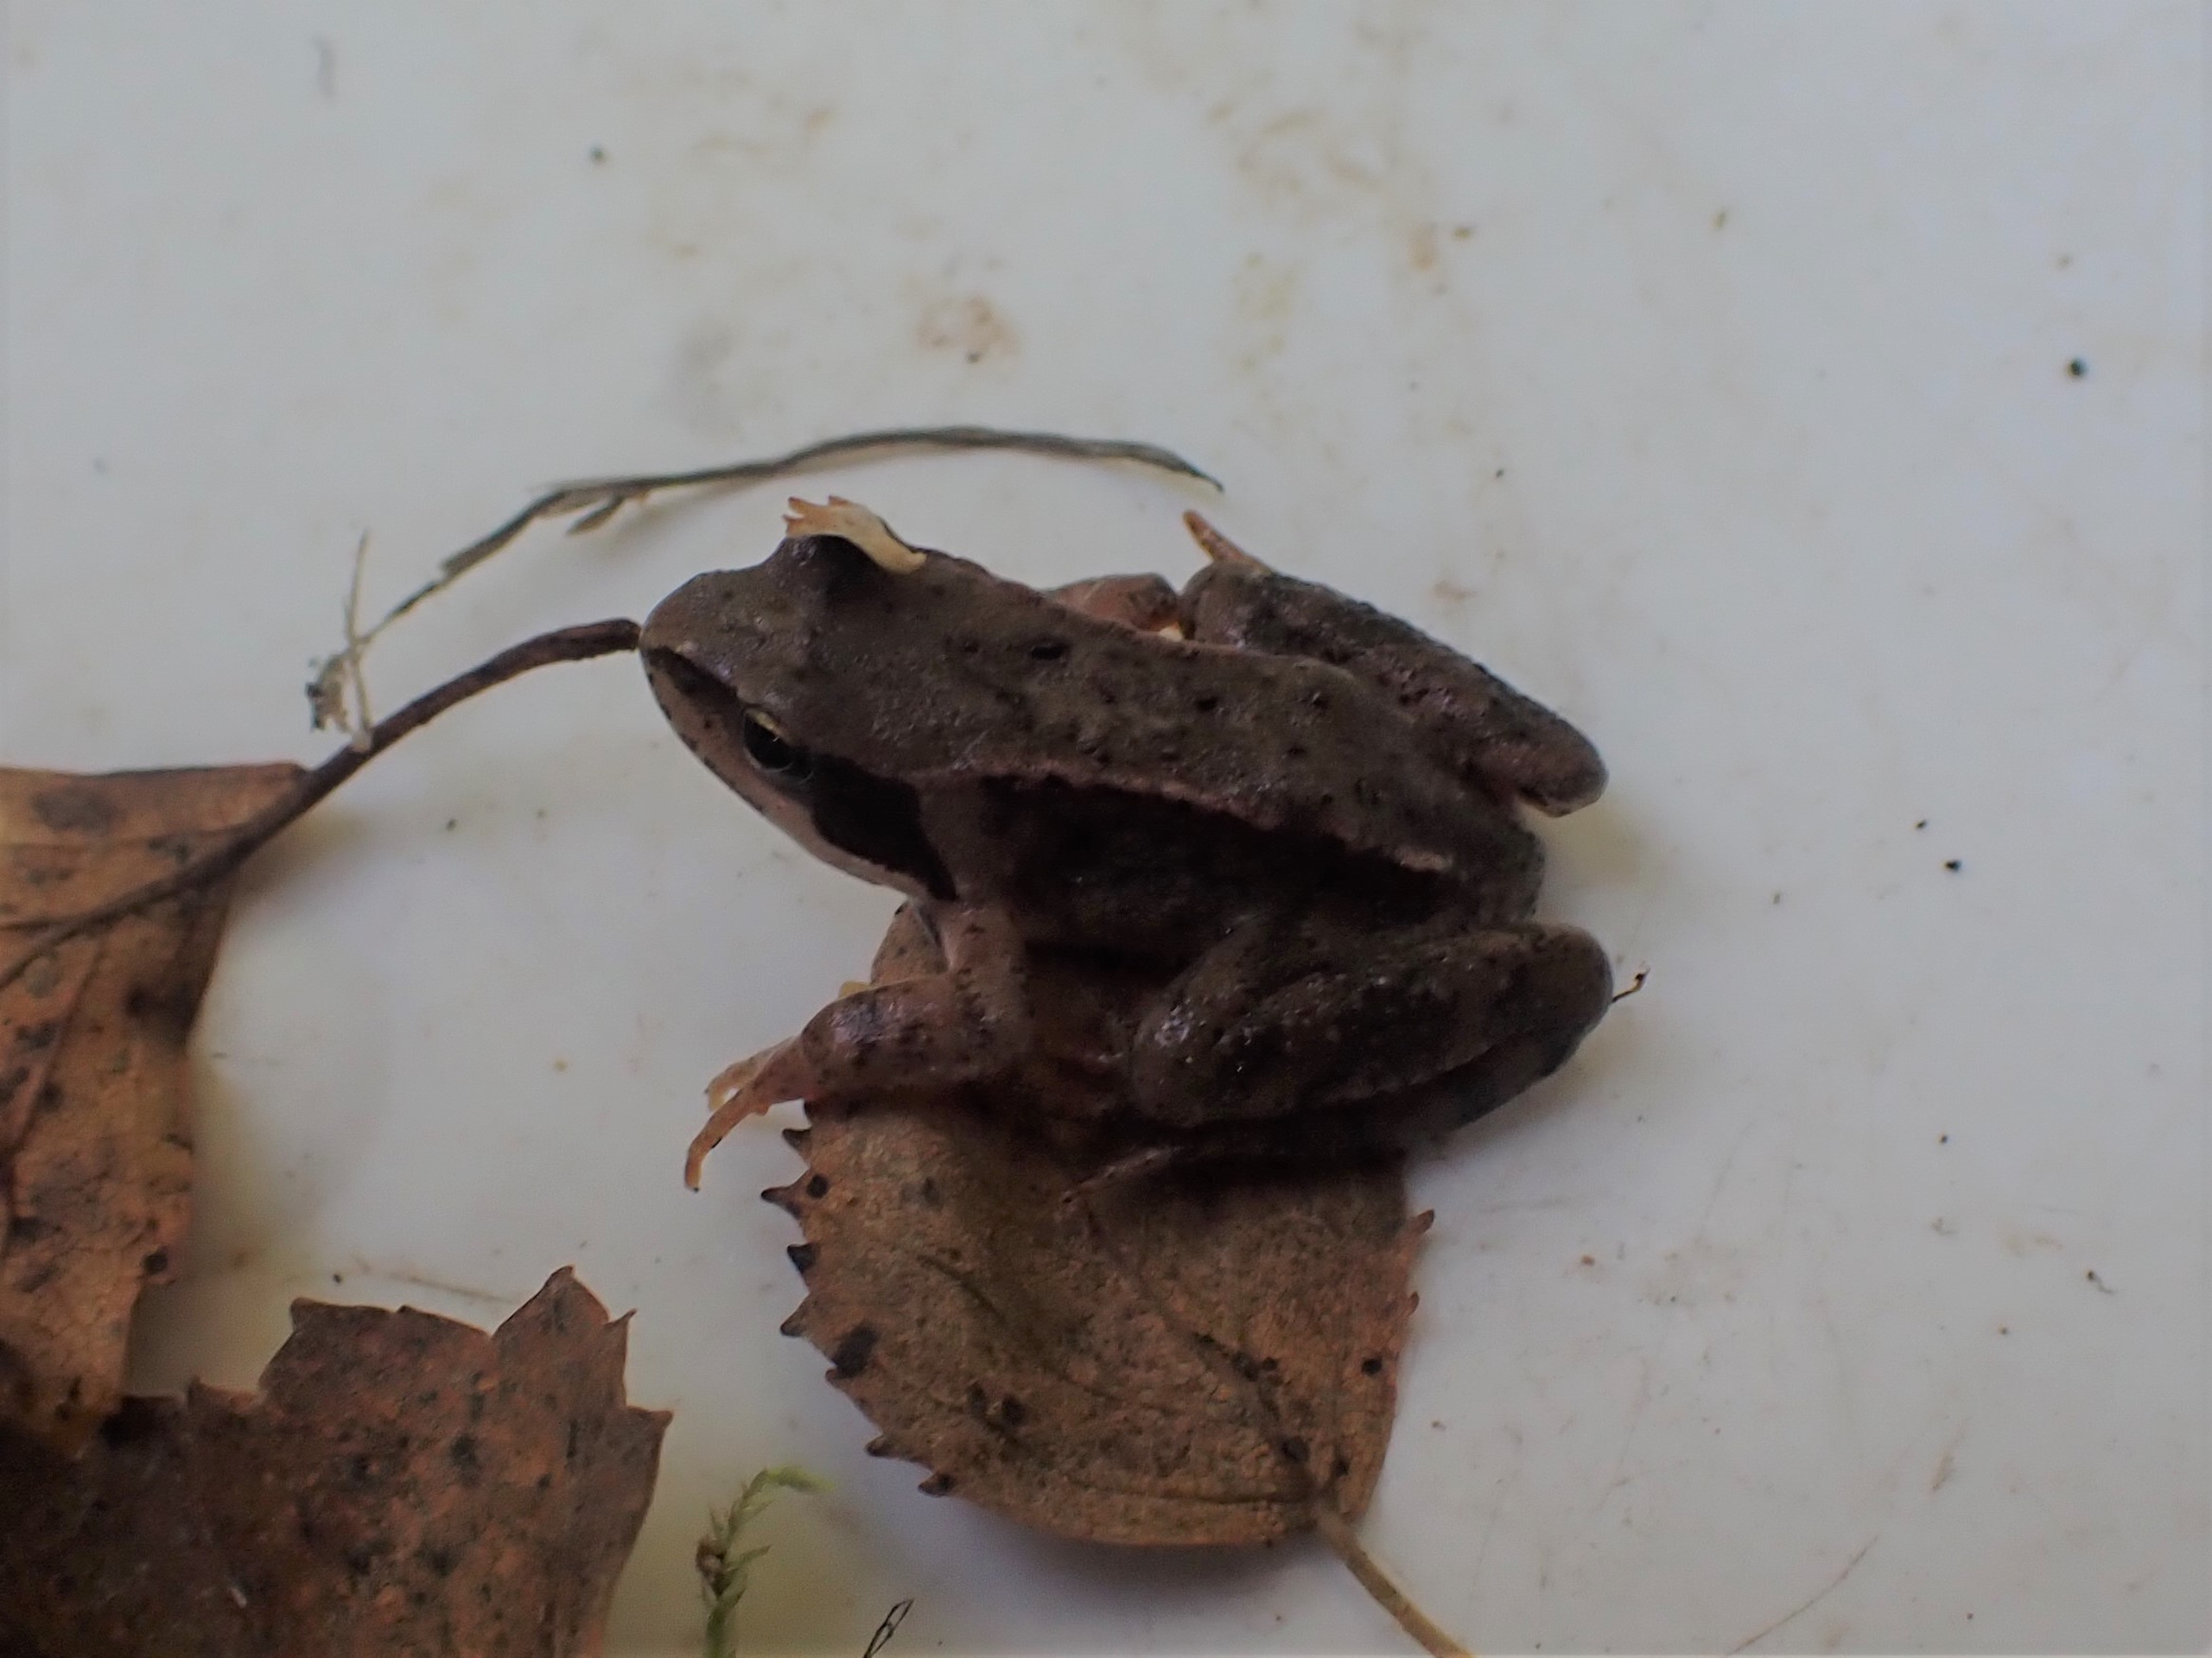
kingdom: Animalia
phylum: Chordata
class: Amphibia
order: Anura
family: Ranidae
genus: Rana
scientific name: Rana temporaria
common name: Butsnudet frø
